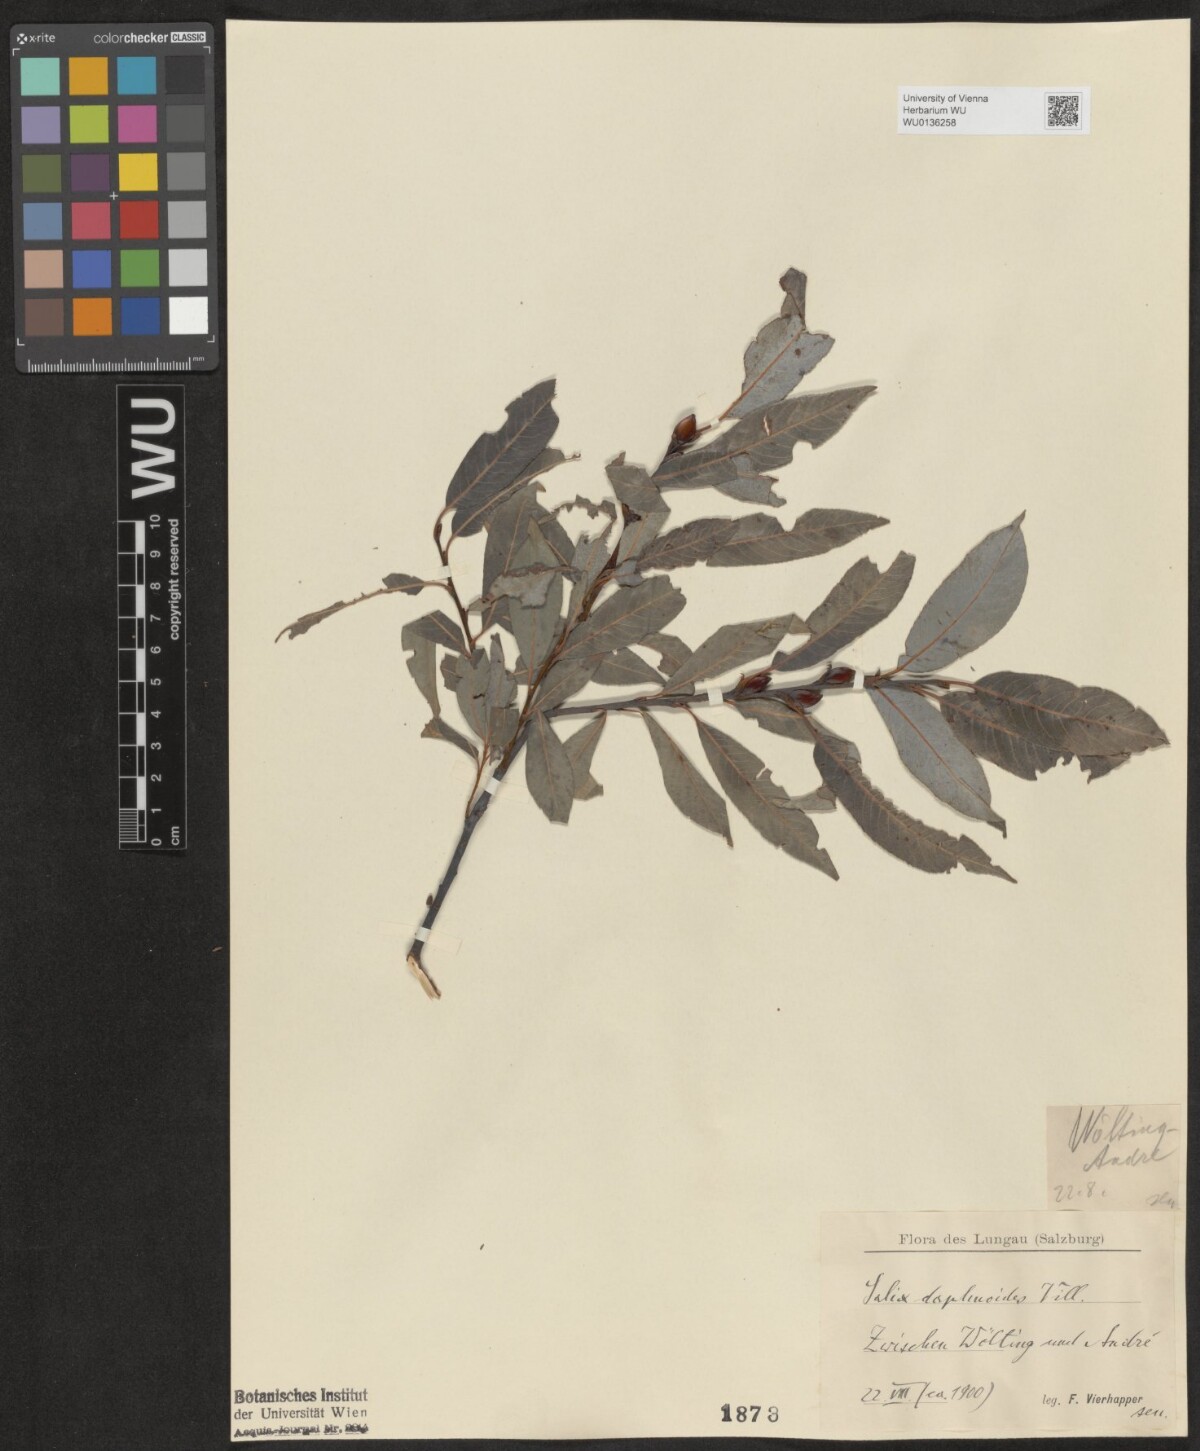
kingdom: Plantae
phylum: Tracheophyta
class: Magnoliopsida
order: Malpighiales
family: Salicaceae
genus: Salix
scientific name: Salix daphnoides
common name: European violet-willow
